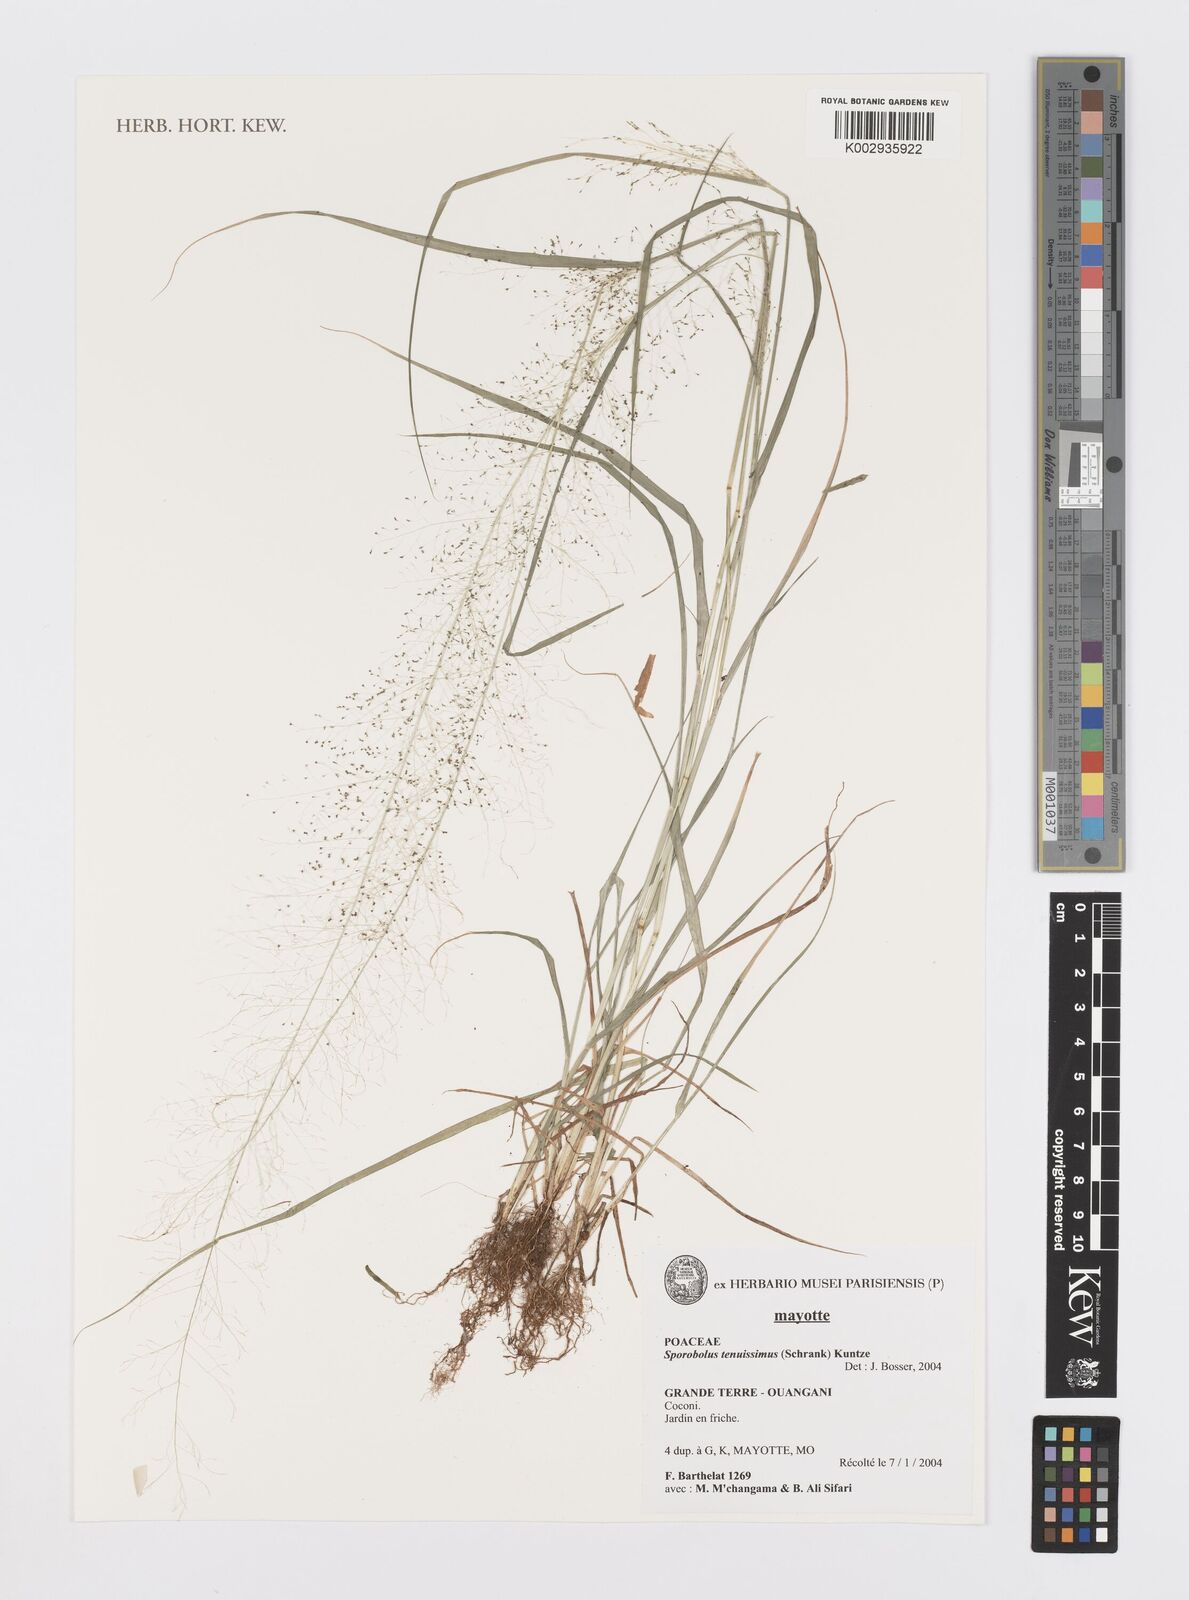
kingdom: Plantae
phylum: Tracheophyta
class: Liliopsida
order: Poales
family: Poaceae
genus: Sporobolus
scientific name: Sporobolus tenuissimus
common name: Tropical dropseed
